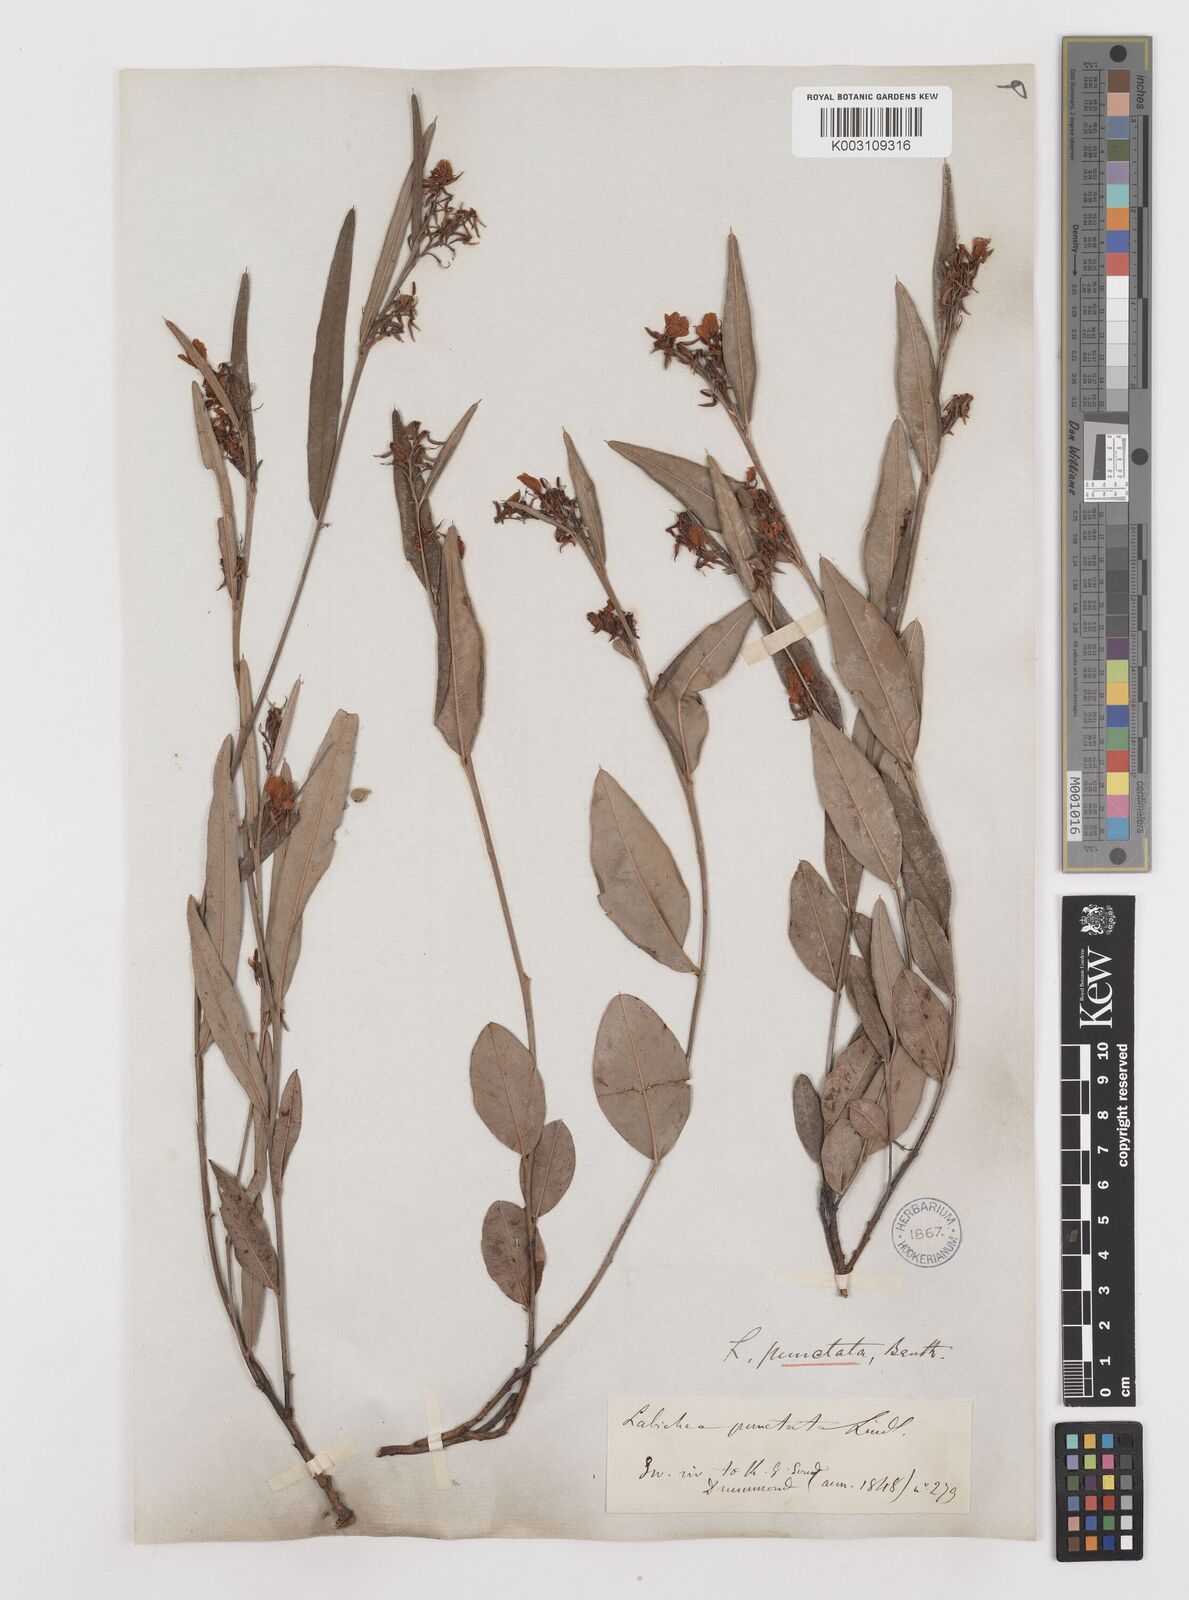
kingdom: Plantae
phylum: Tracheophyta
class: Magnoliopsida
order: Fabales
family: Fabaceae
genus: Labichea
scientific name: Labichea punctata
